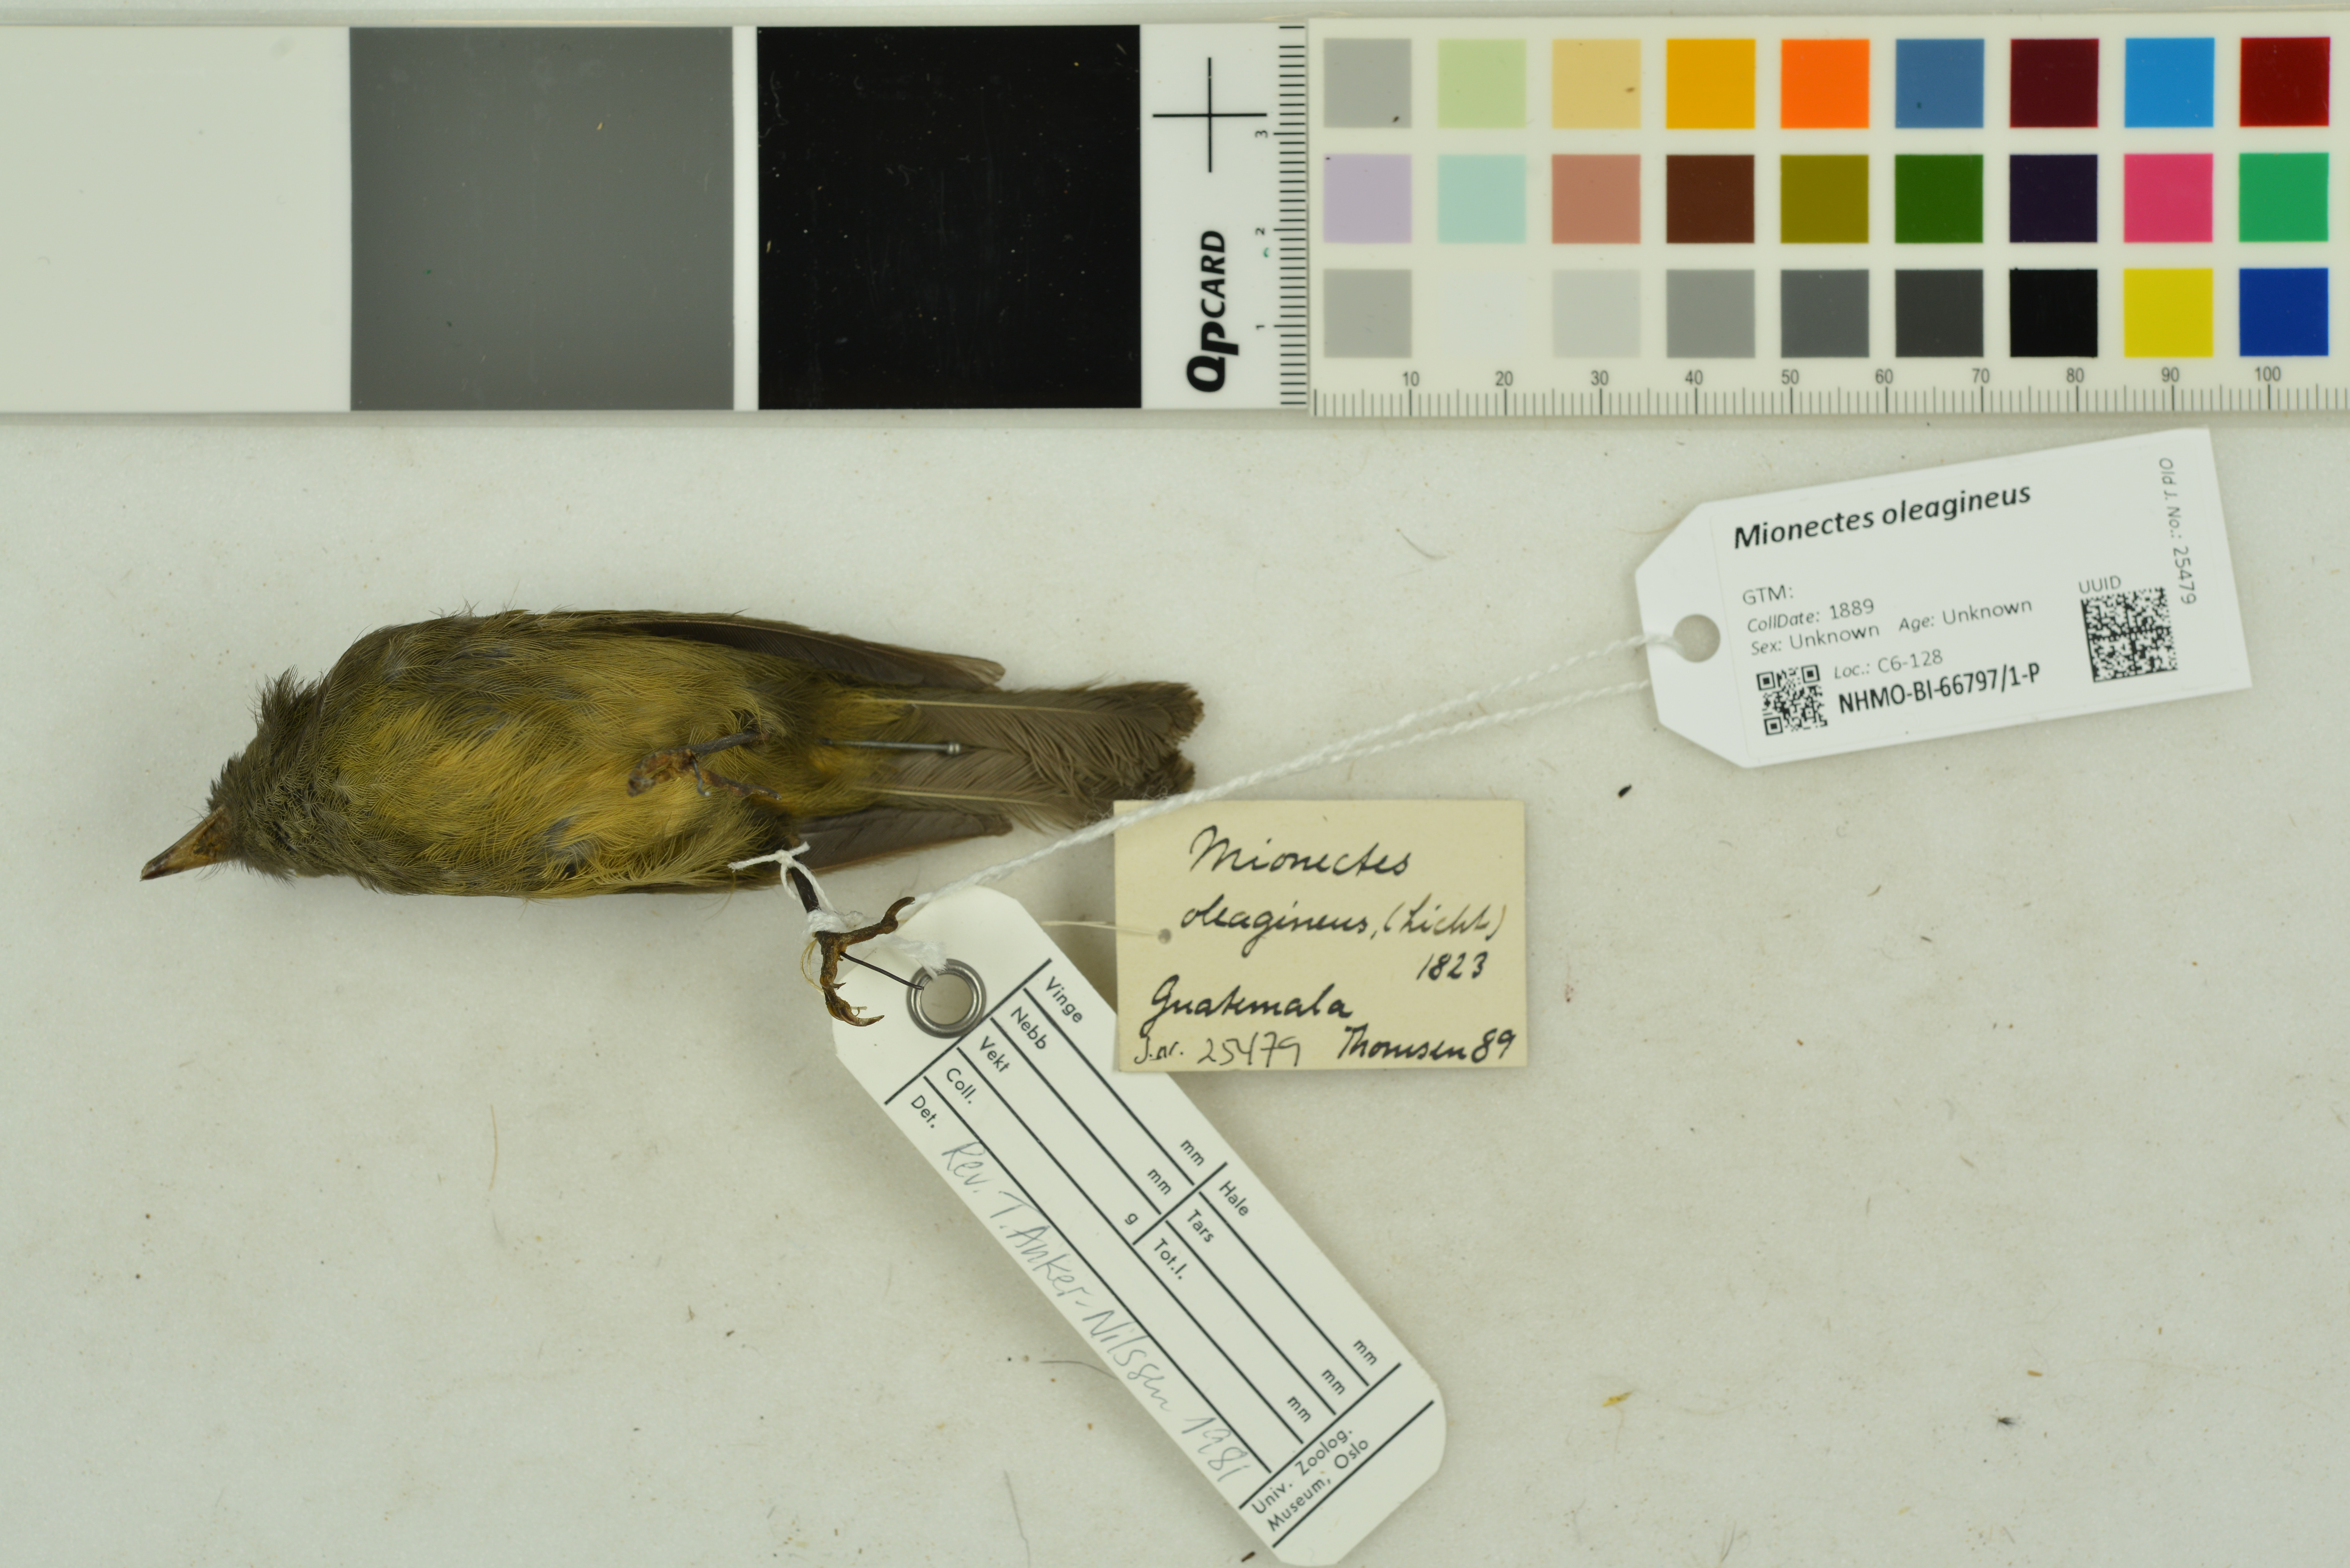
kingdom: Animalia
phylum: Chordata
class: Aves
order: Passeriformes
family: Tyrannidae
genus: Mionectes
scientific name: Mionectes oleagineus
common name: Ochre-bellied flycatcher
